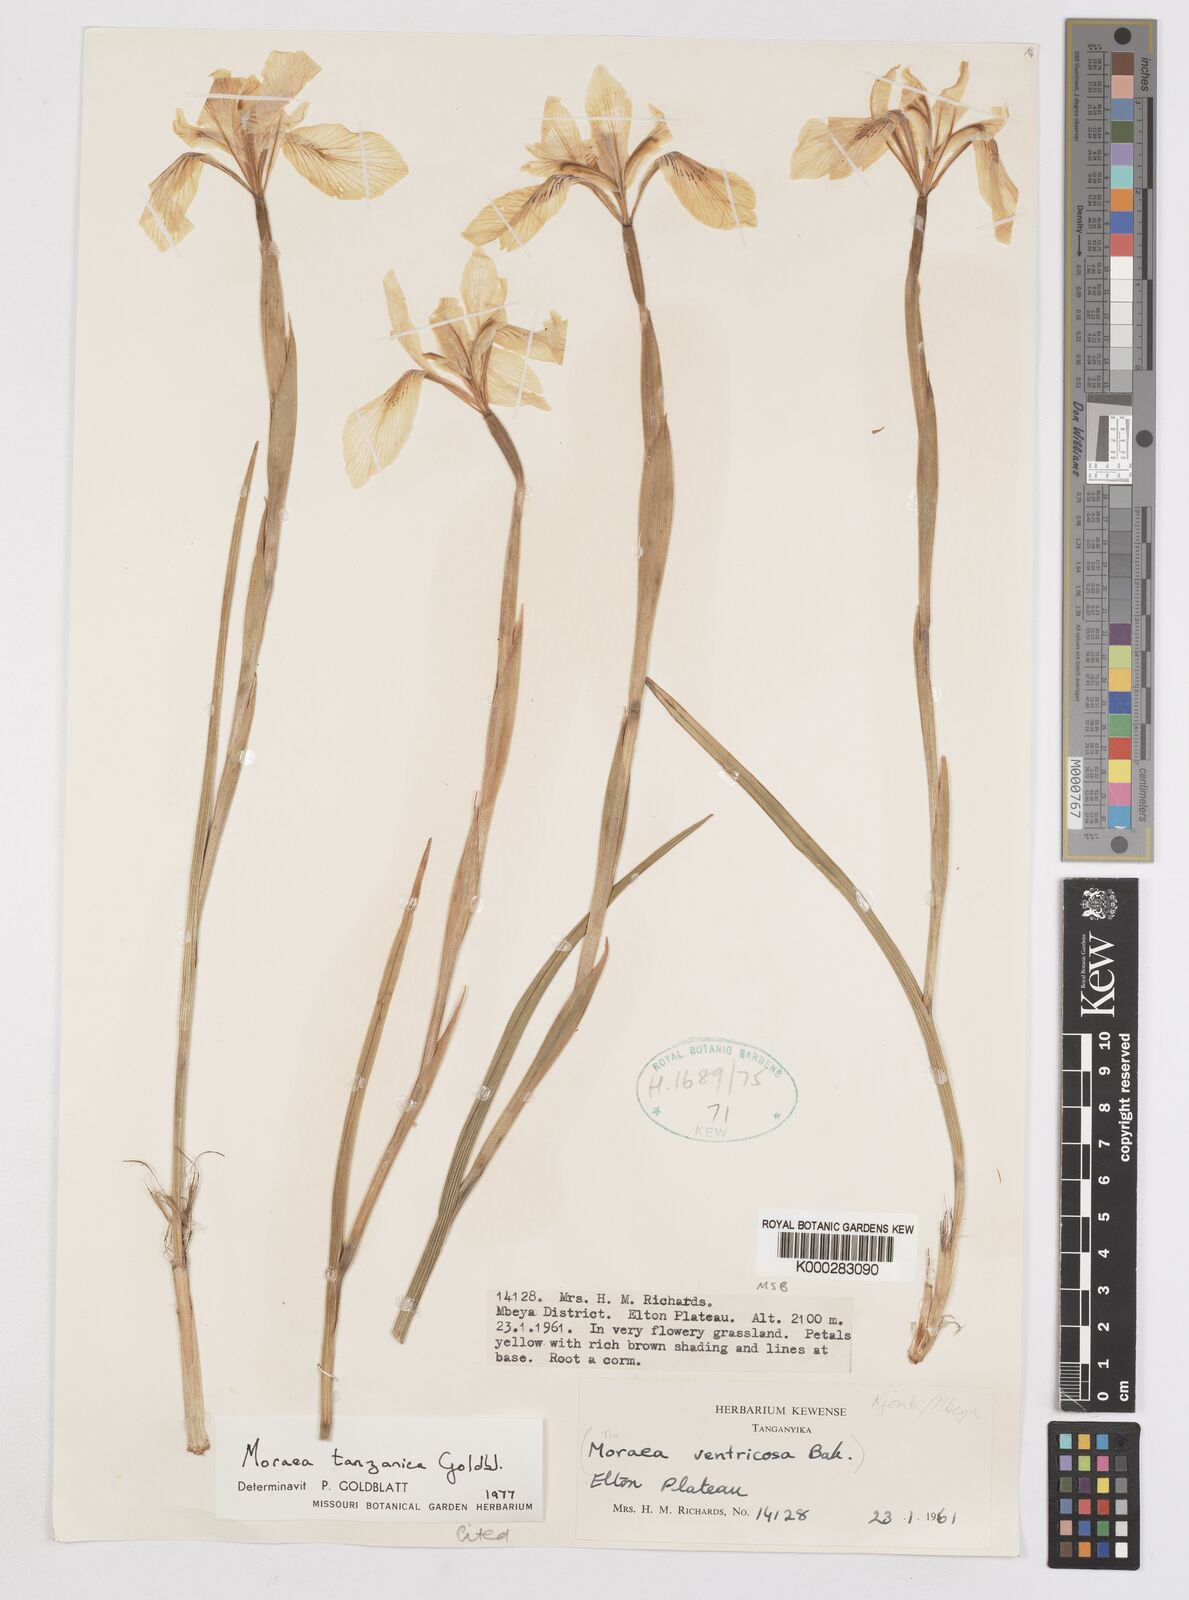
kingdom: Plantae
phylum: Tracheophyta
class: Liliopsida
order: Asparagales
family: Iridaceae
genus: Moraea
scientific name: Moraea tanzanica
